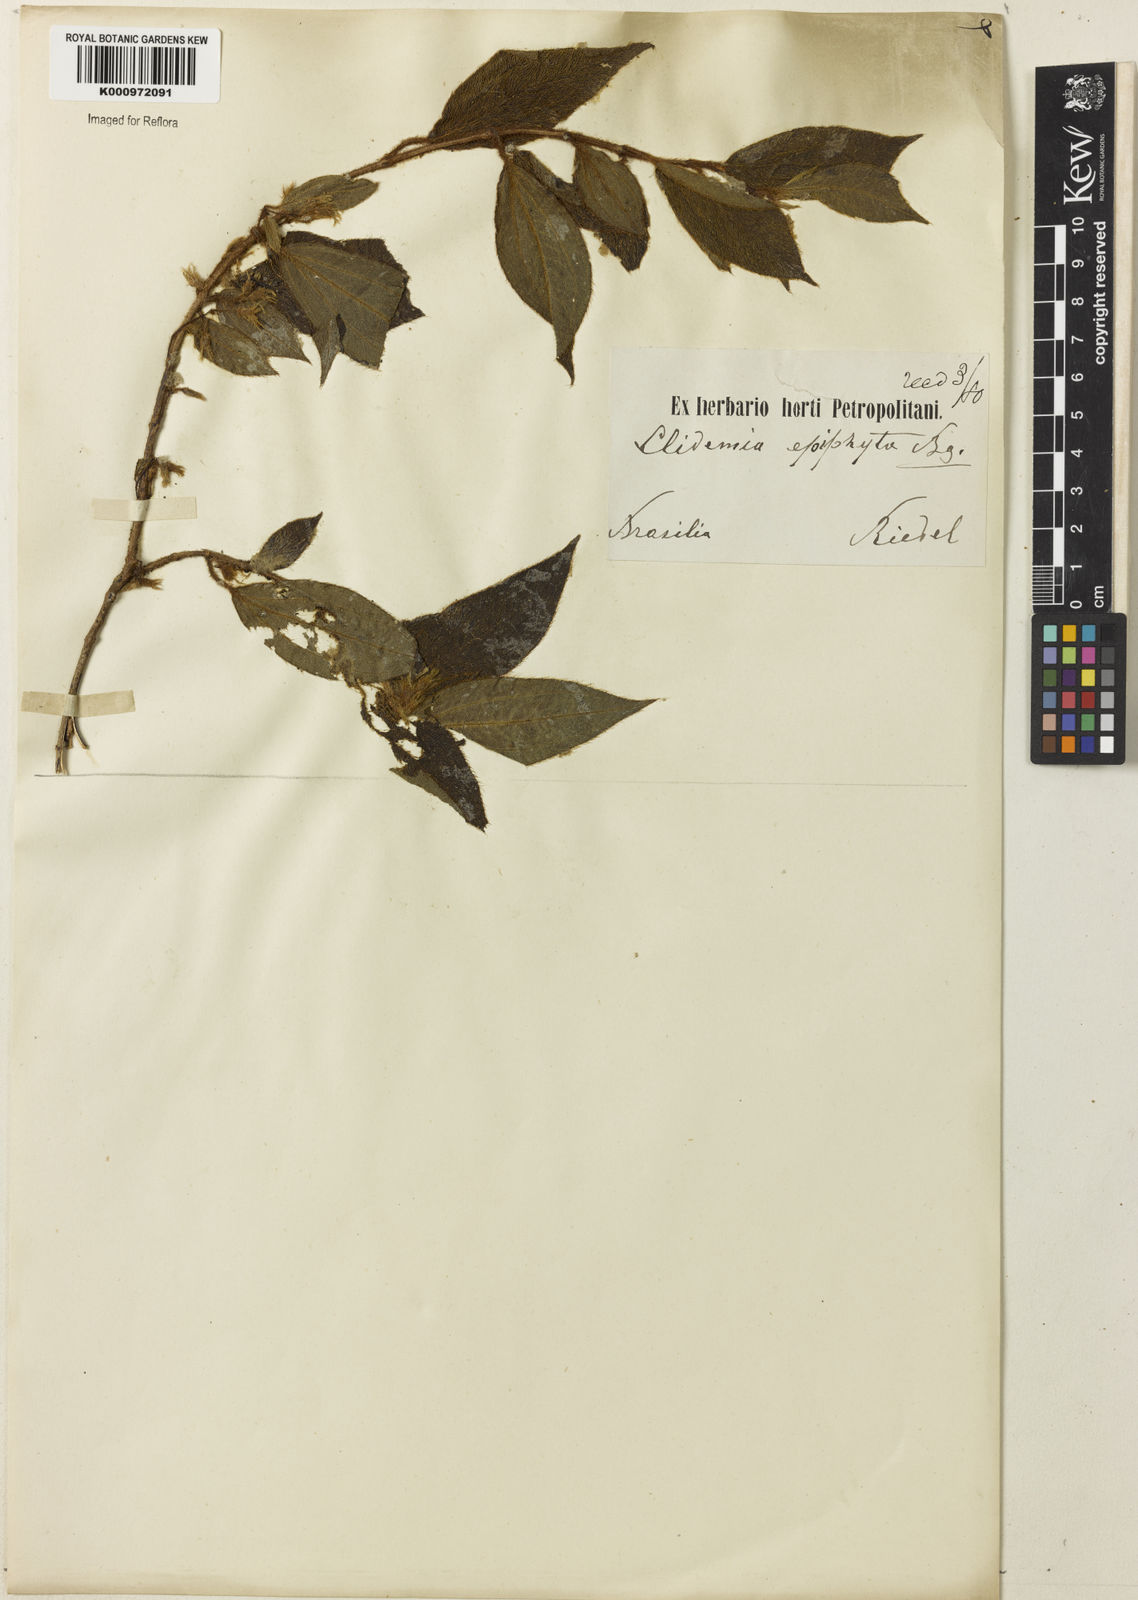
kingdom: Plantae
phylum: Tracheophyta
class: Magnoliopsida
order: Myrtales
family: Melastomataceae
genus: Miconia
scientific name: Miconia
